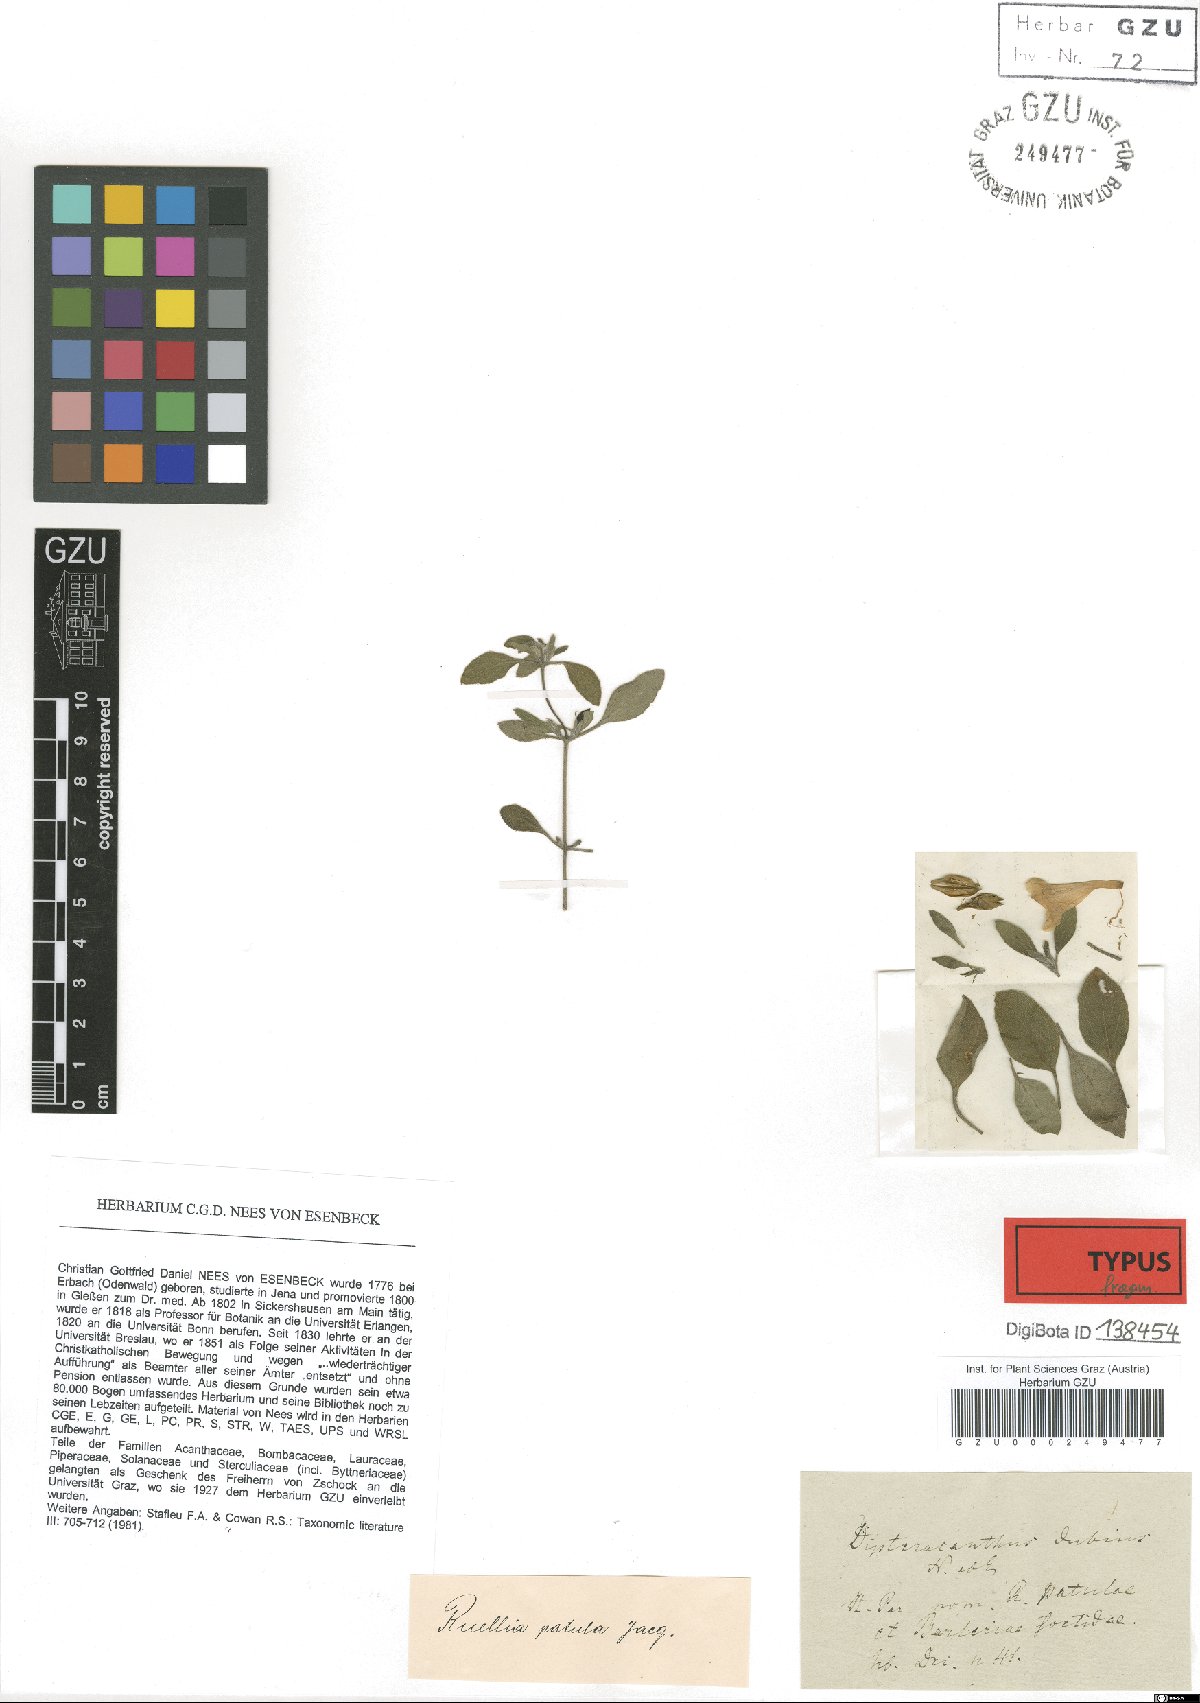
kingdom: Plantae
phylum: Tracheophyta
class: Magnoliopsida
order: Lamiales
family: Acanthaceae
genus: Ruellia
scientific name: Ruellia Dipteracanthus dubius
